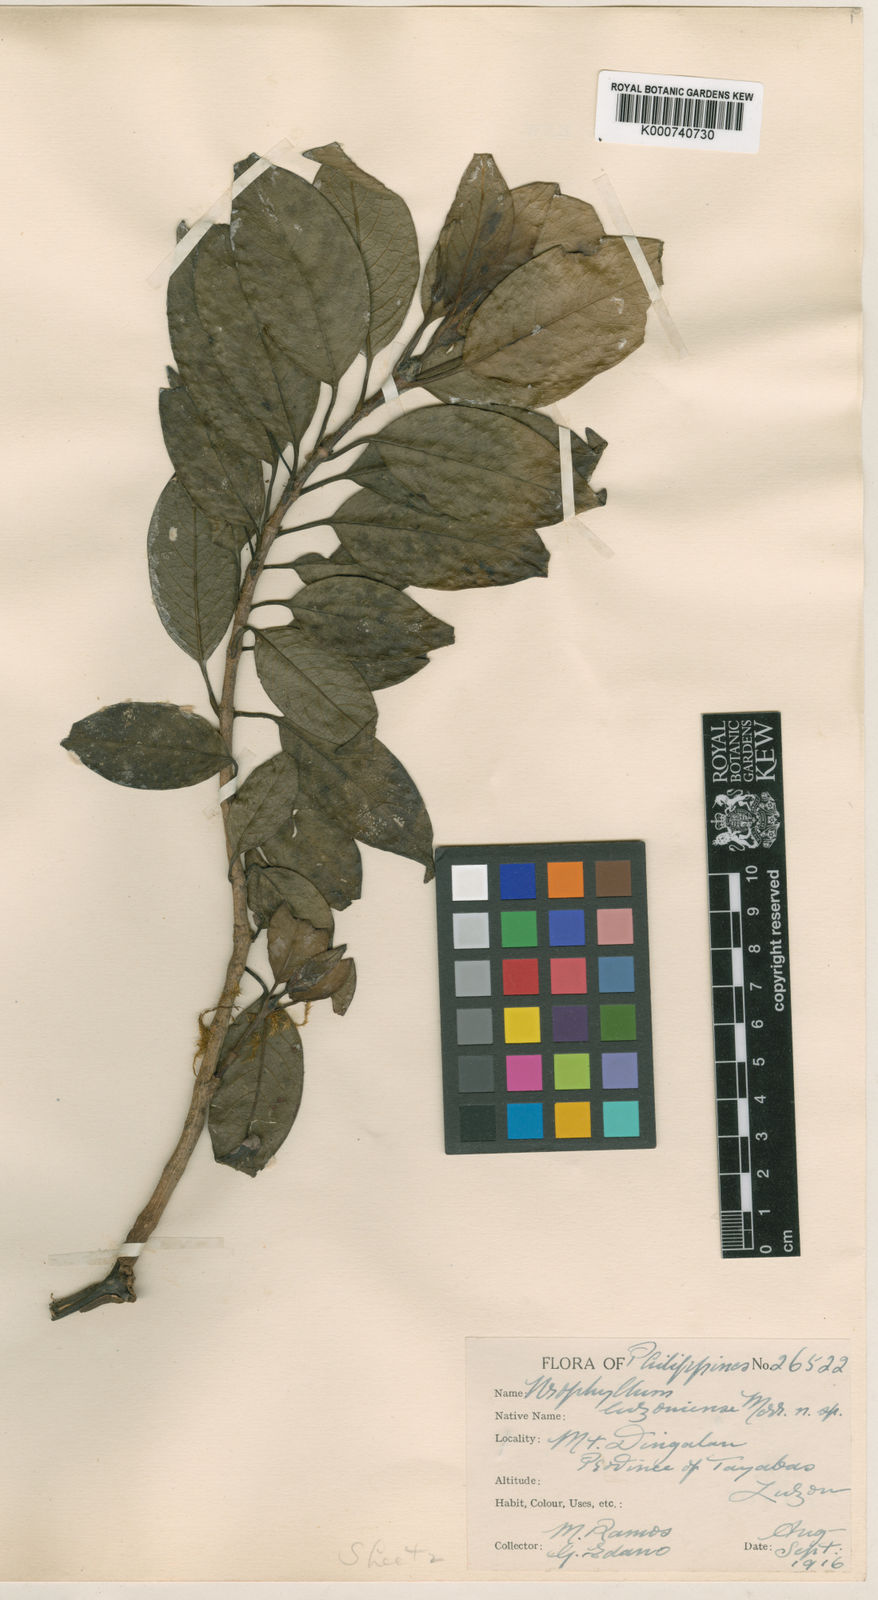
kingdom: Plantae
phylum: Tracheophyta
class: Magnoliopsida
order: Gentianales
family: Rubiaceae
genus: Antherostele
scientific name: Antherostele luzoniensis
